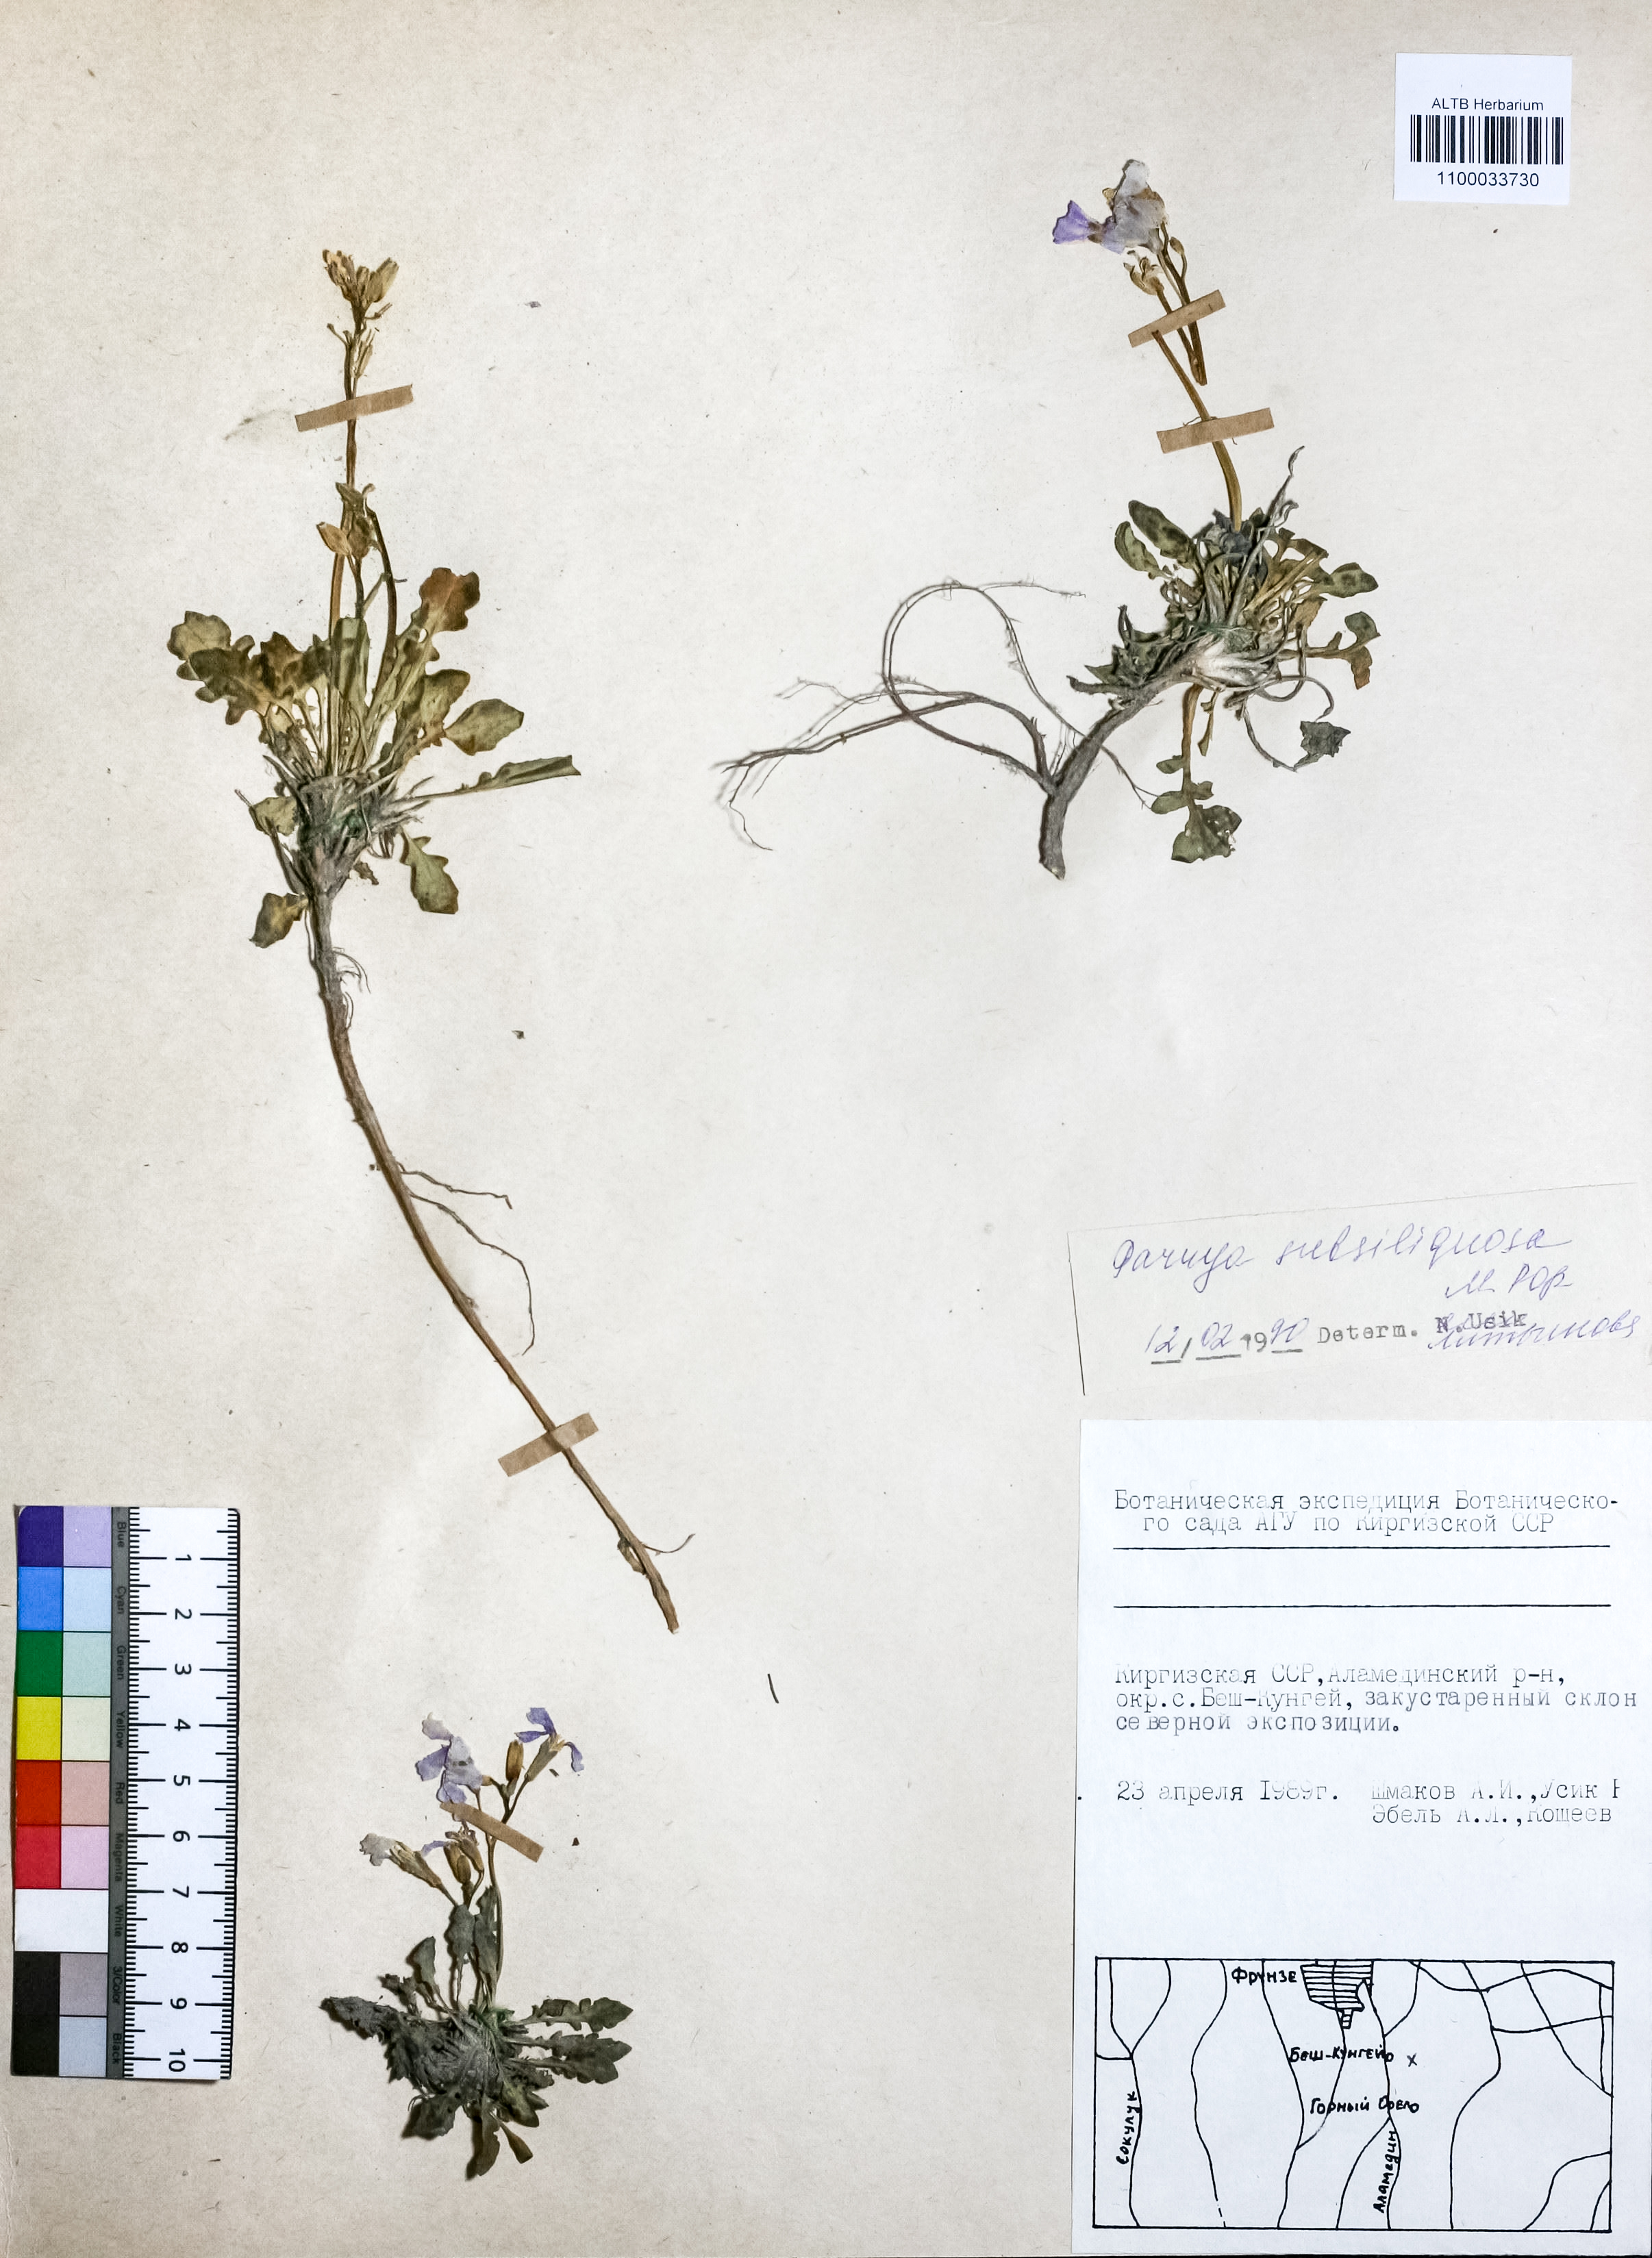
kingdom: Plantae
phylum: Tracheophyta
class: Magnoliopsida
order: Brassicales
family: Brassicaceae
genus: Parrya
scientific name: Parrya subsiliquosa
